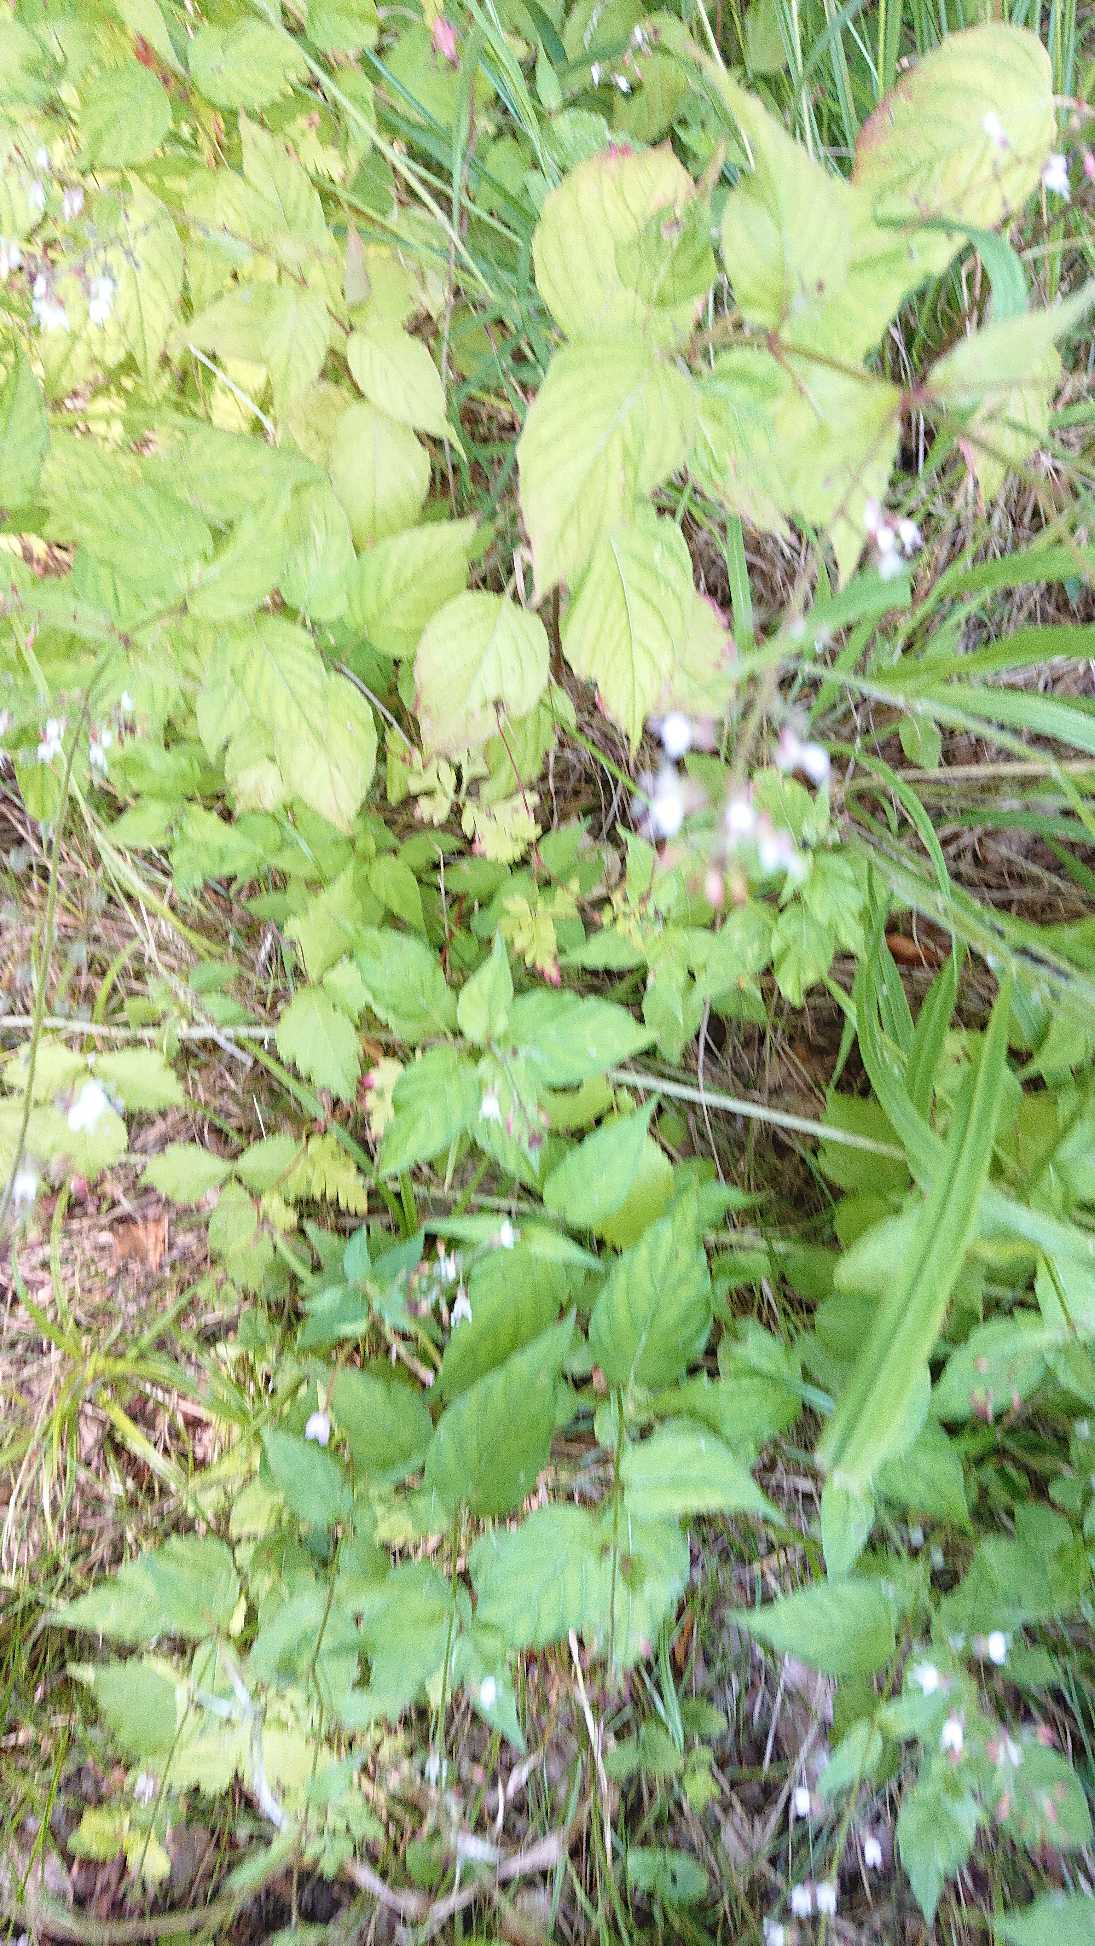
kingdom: Plantae
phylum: Tracheophyta
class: Magnoliopsida
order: Myrtales
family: Onagraceae
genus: Circaea
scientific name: Circaea lutetiana
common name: Dunet steffensurt
